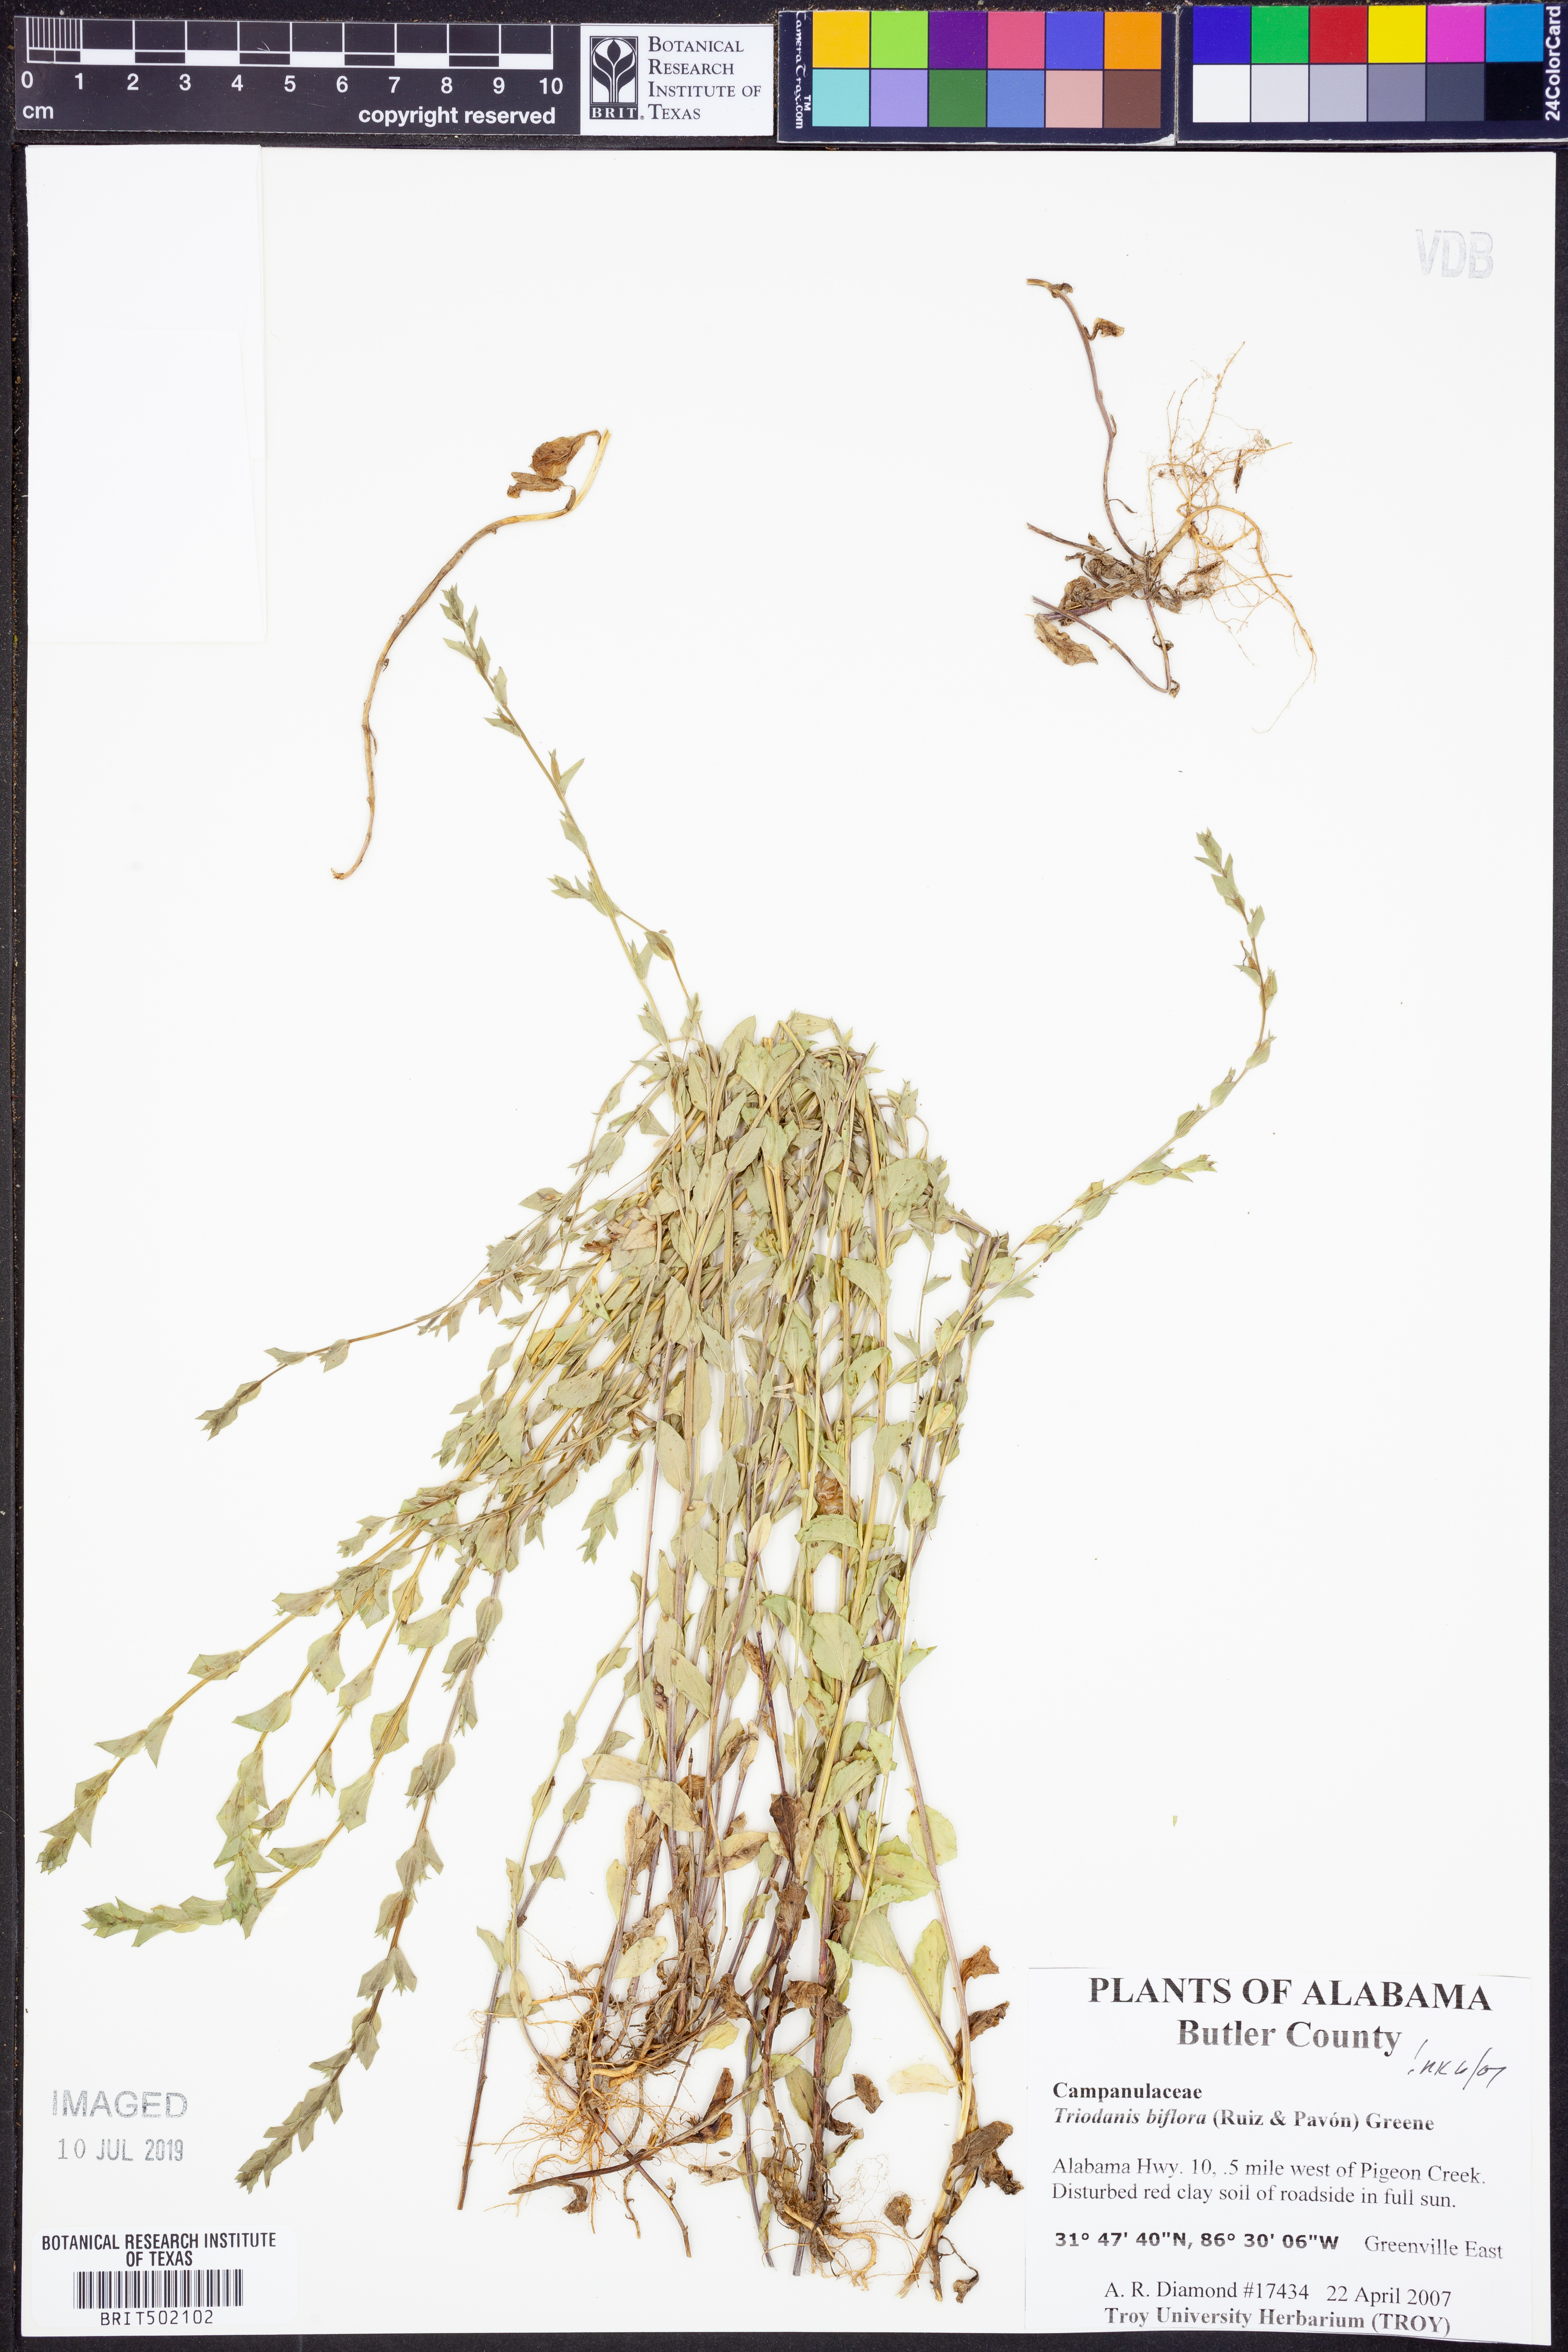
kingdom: Plantae
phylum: Tracheophyta
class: Magnoliopsida
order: Asterales
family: Campanulaceae
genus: Triodanis
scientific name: Triodanis perfoliata
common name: Clasping venus' looking-glass
